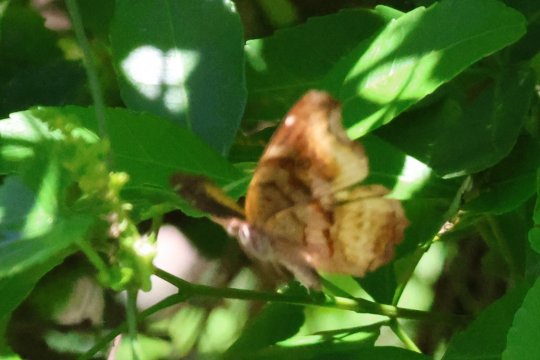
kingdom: Animalia
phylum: Arthropoda
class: Insecta
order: Lepidoptera
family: Nymphalidae
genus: Eurytela
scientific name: Eurytela dryope
